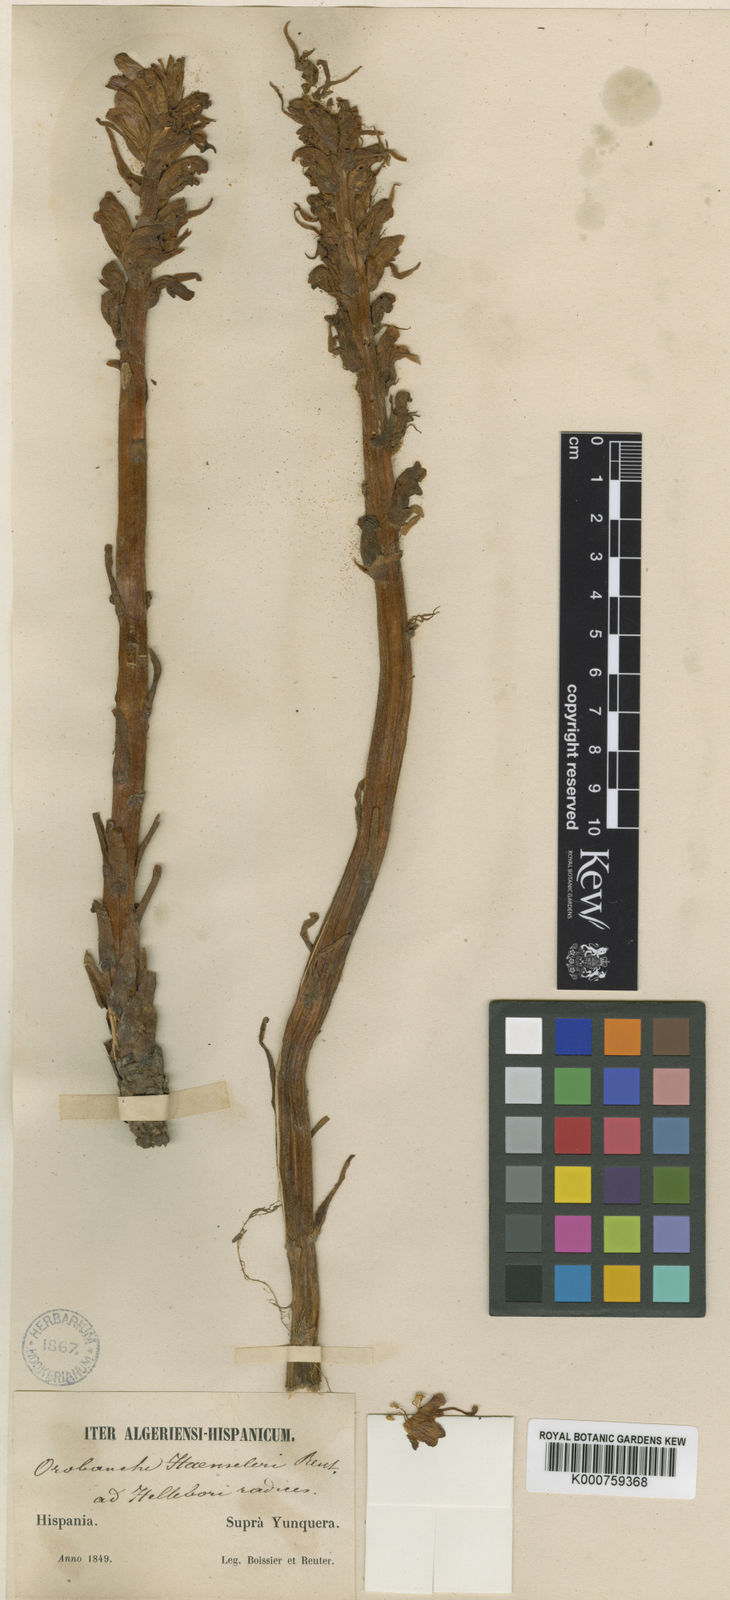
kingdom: Plantae
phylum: Tracheophyta
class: Magnoliopsida
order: Lamiales
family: Orobanchaceae
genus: Orobanche
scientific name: Orobanche haenseleri
